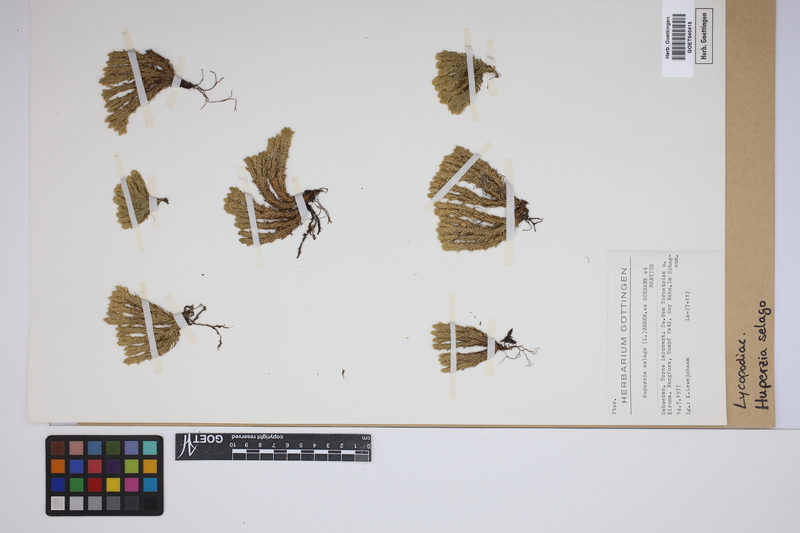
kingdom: Plantae
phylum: Tracheophyta
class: Lycopodiopsida
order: Lycopodiales
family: Lycopodiaceae
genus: Huperzia
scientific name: Huperzia selago
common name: Northern firmoss
